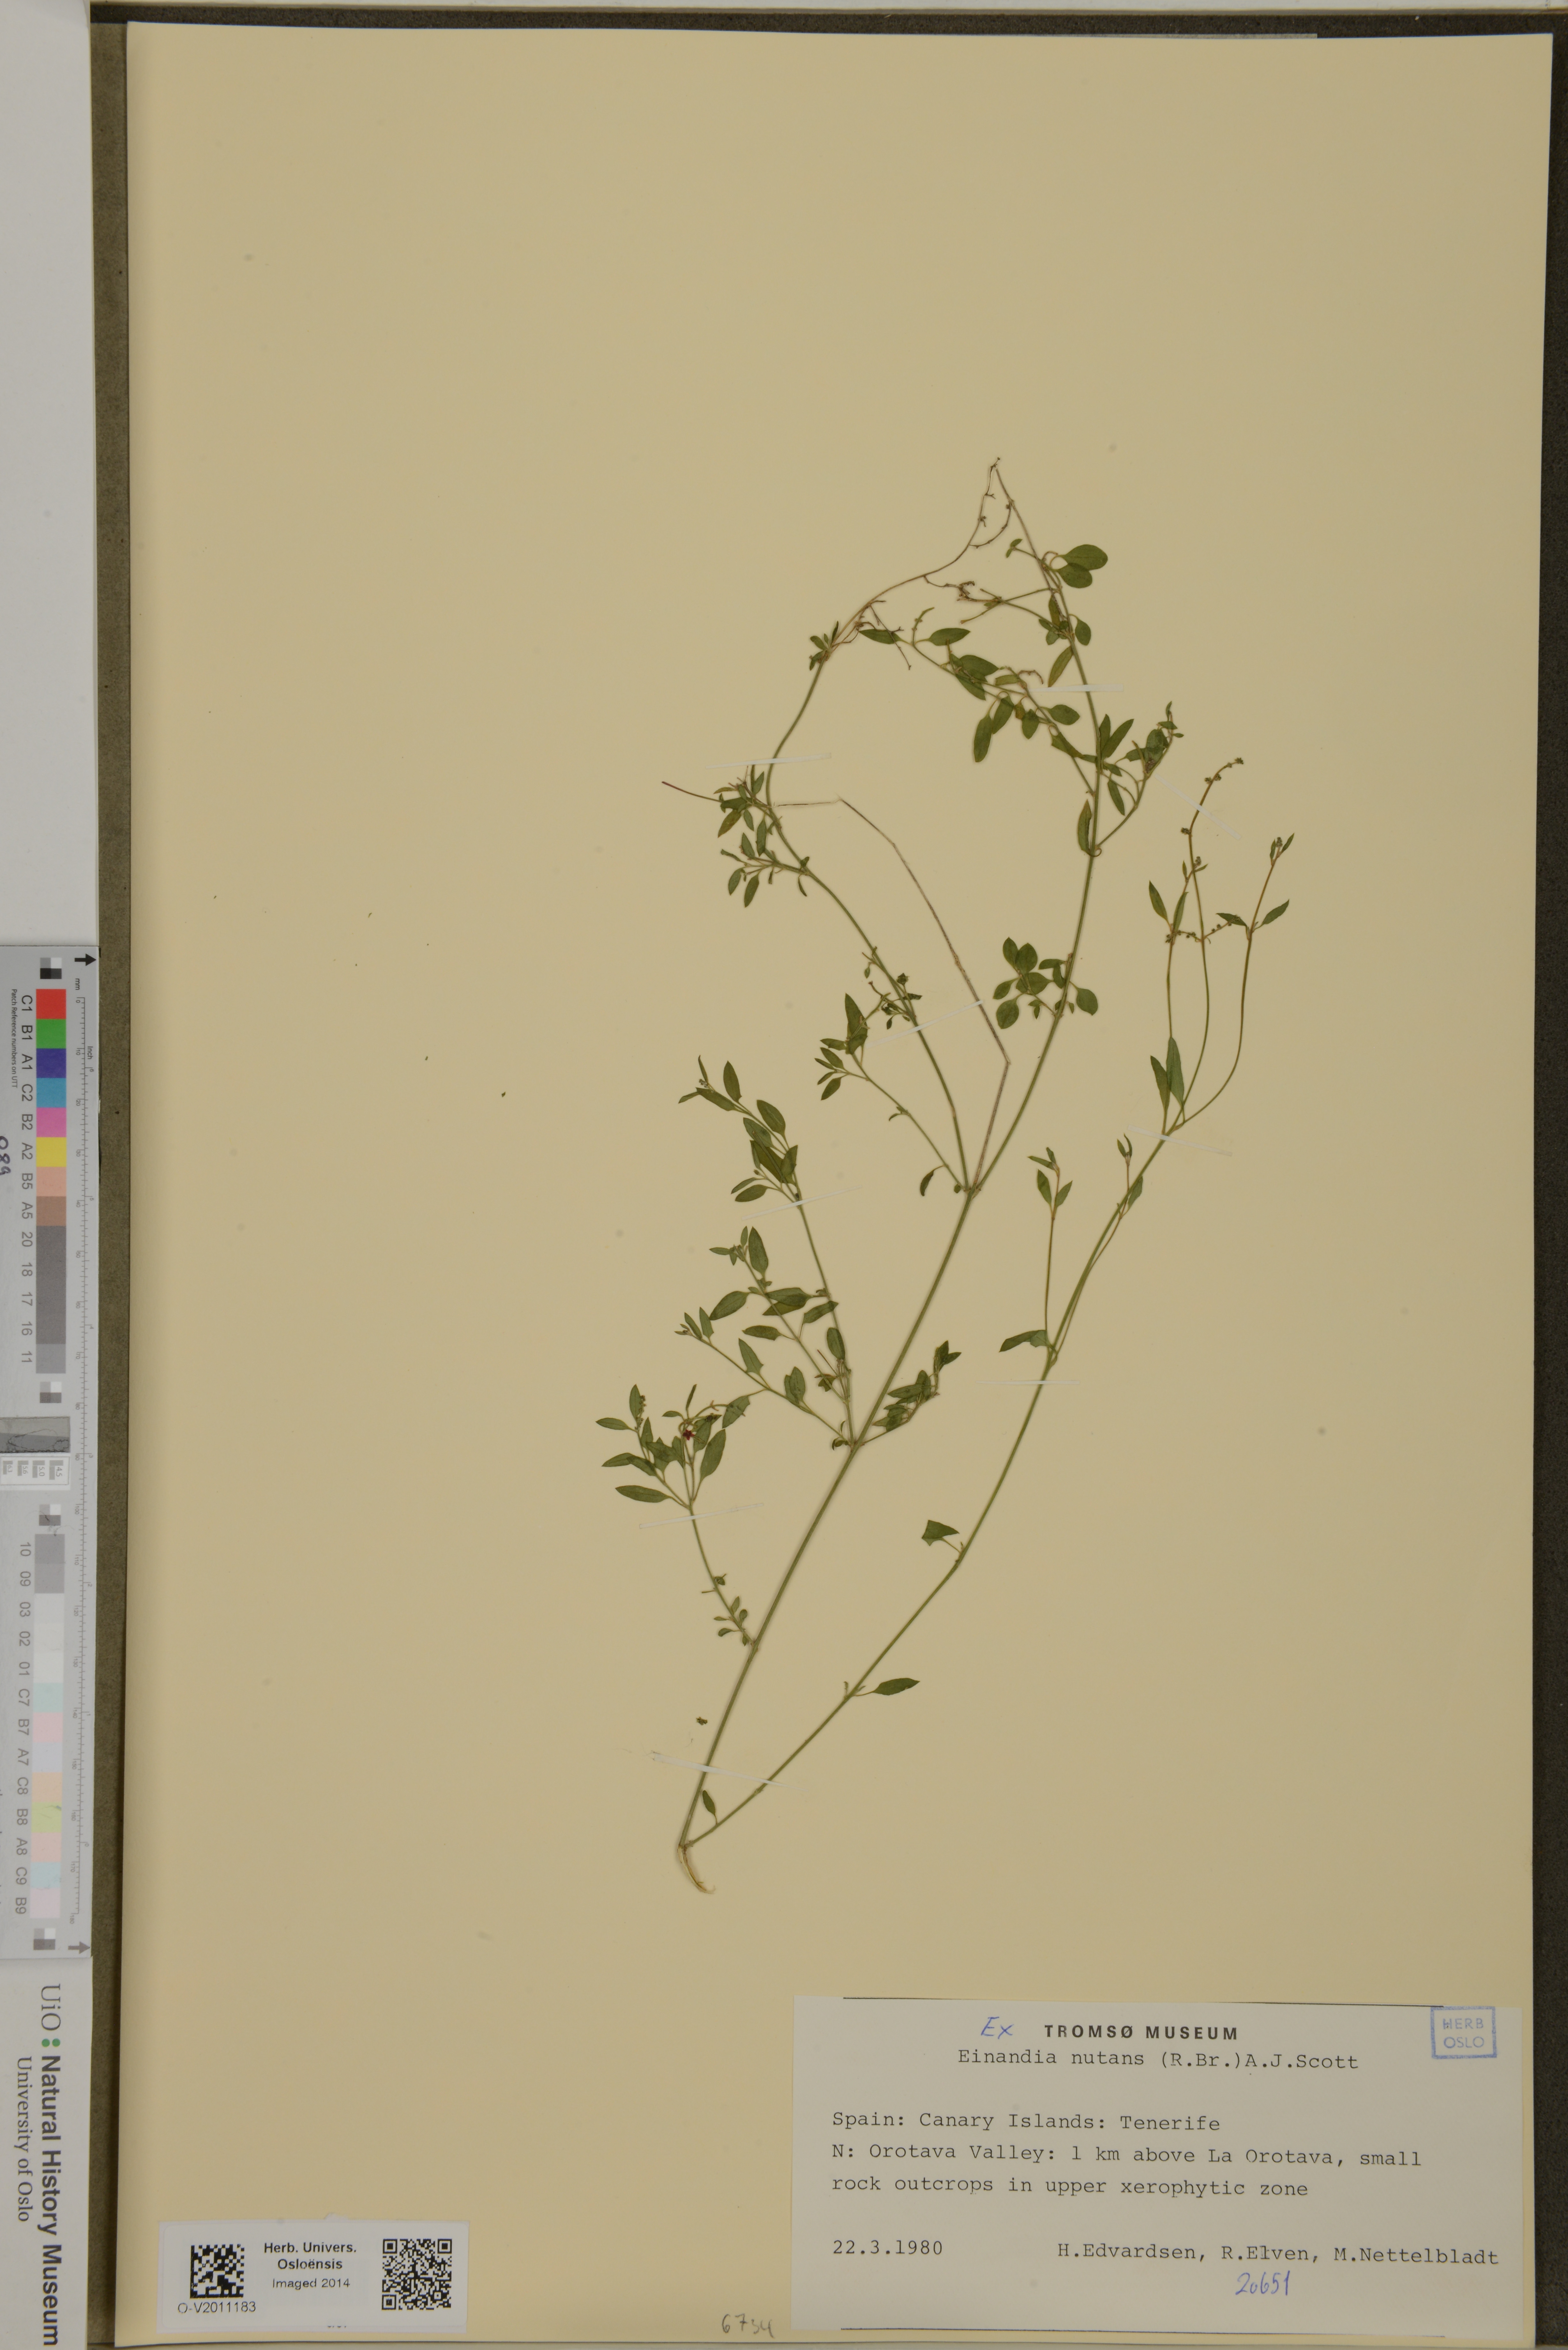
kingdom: Plantae
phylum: Tracheophyta
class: Magnoliopsida
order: Caryophyllales
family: Amaranthaceae
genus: Chenopodium
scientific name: Chenopodium nutans
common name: Climbing-saltbush
